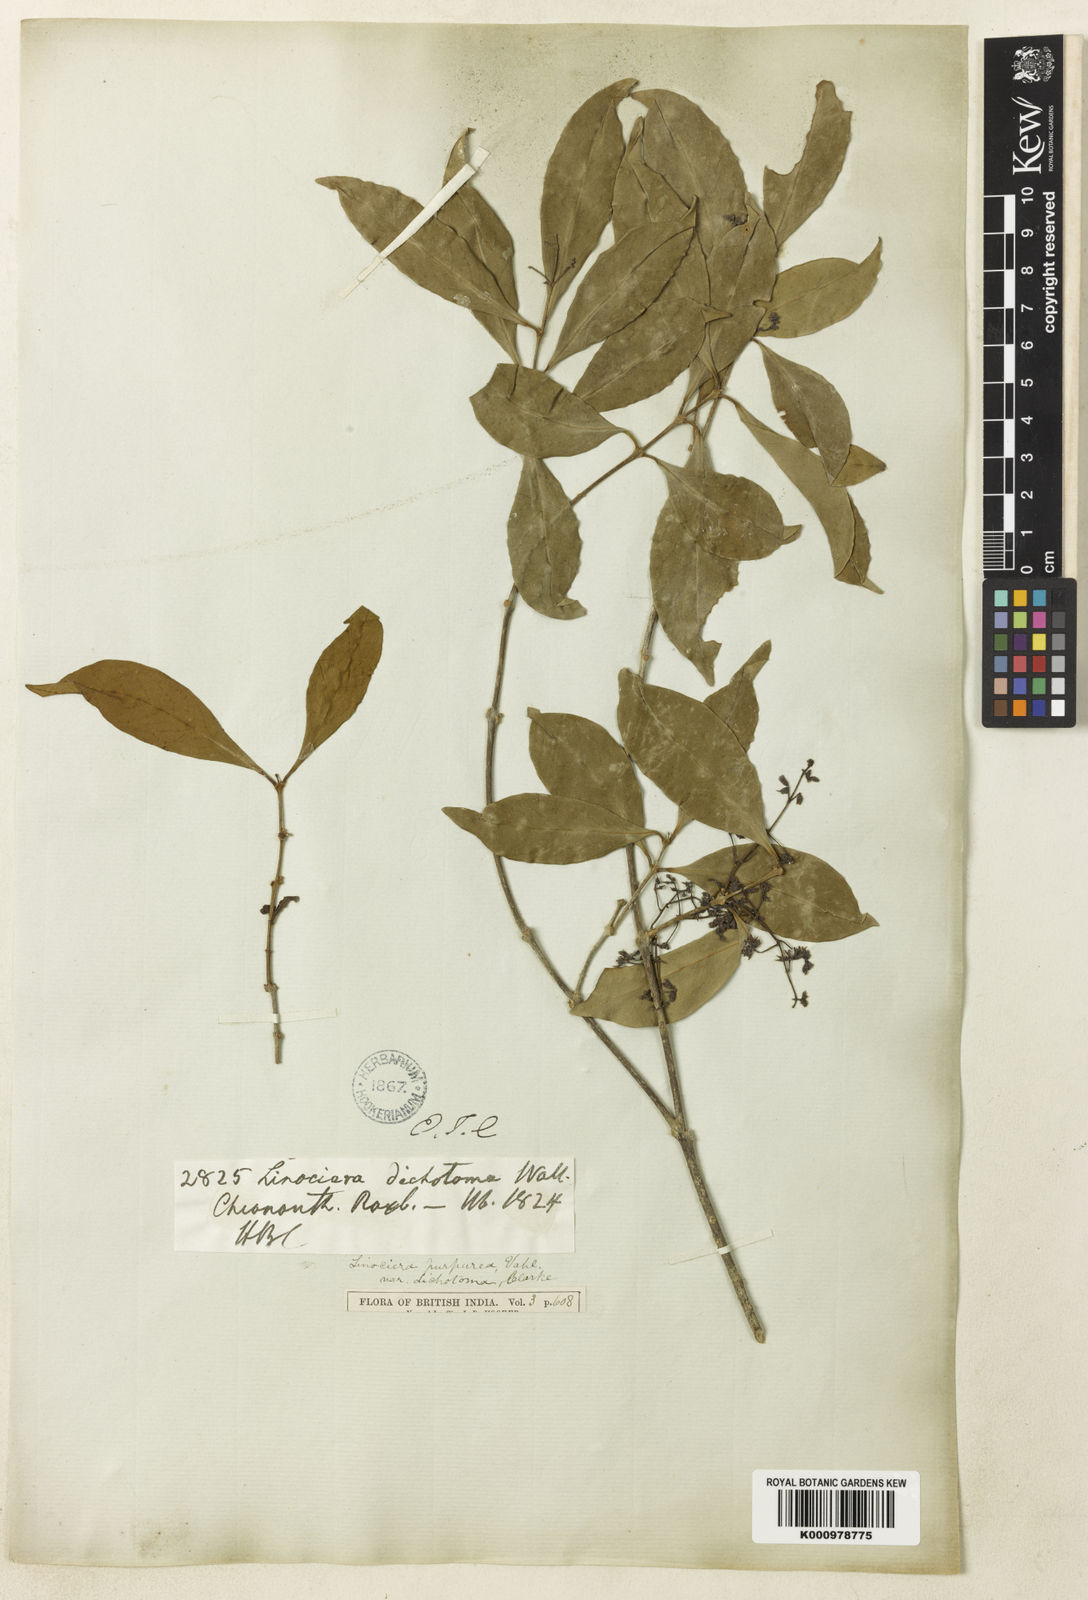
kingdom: Plantae
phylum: Tracheophyta
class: Magnoliopsida
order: Lamiales
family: Oleaceae
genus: Chionanthus
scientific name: Chionanthus zeylanicus
